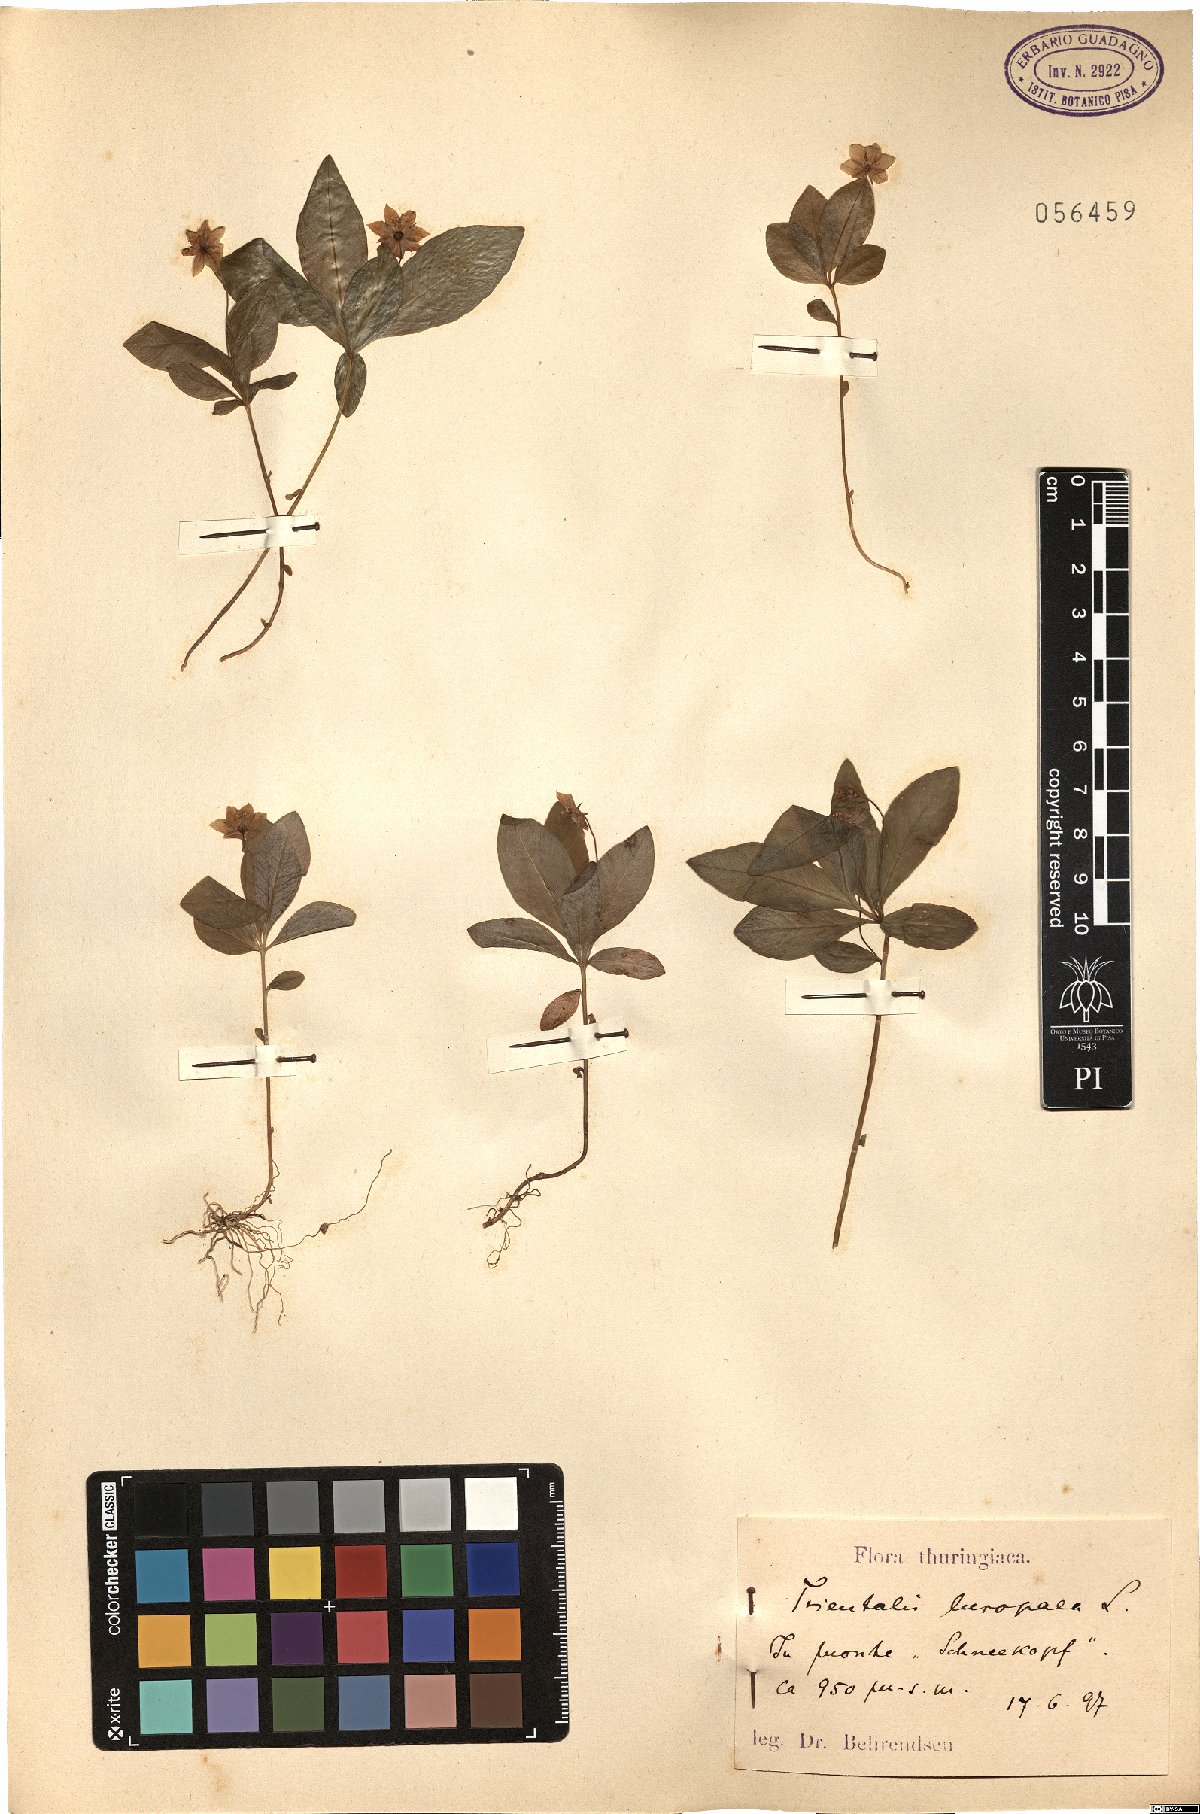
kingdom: Plantae
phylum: Tracheophyta
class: Magnoliopsida
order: Ericales
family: Primulaceae
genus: Lysimachia
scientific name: Lysimachia europaea
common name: Arctic starflower
